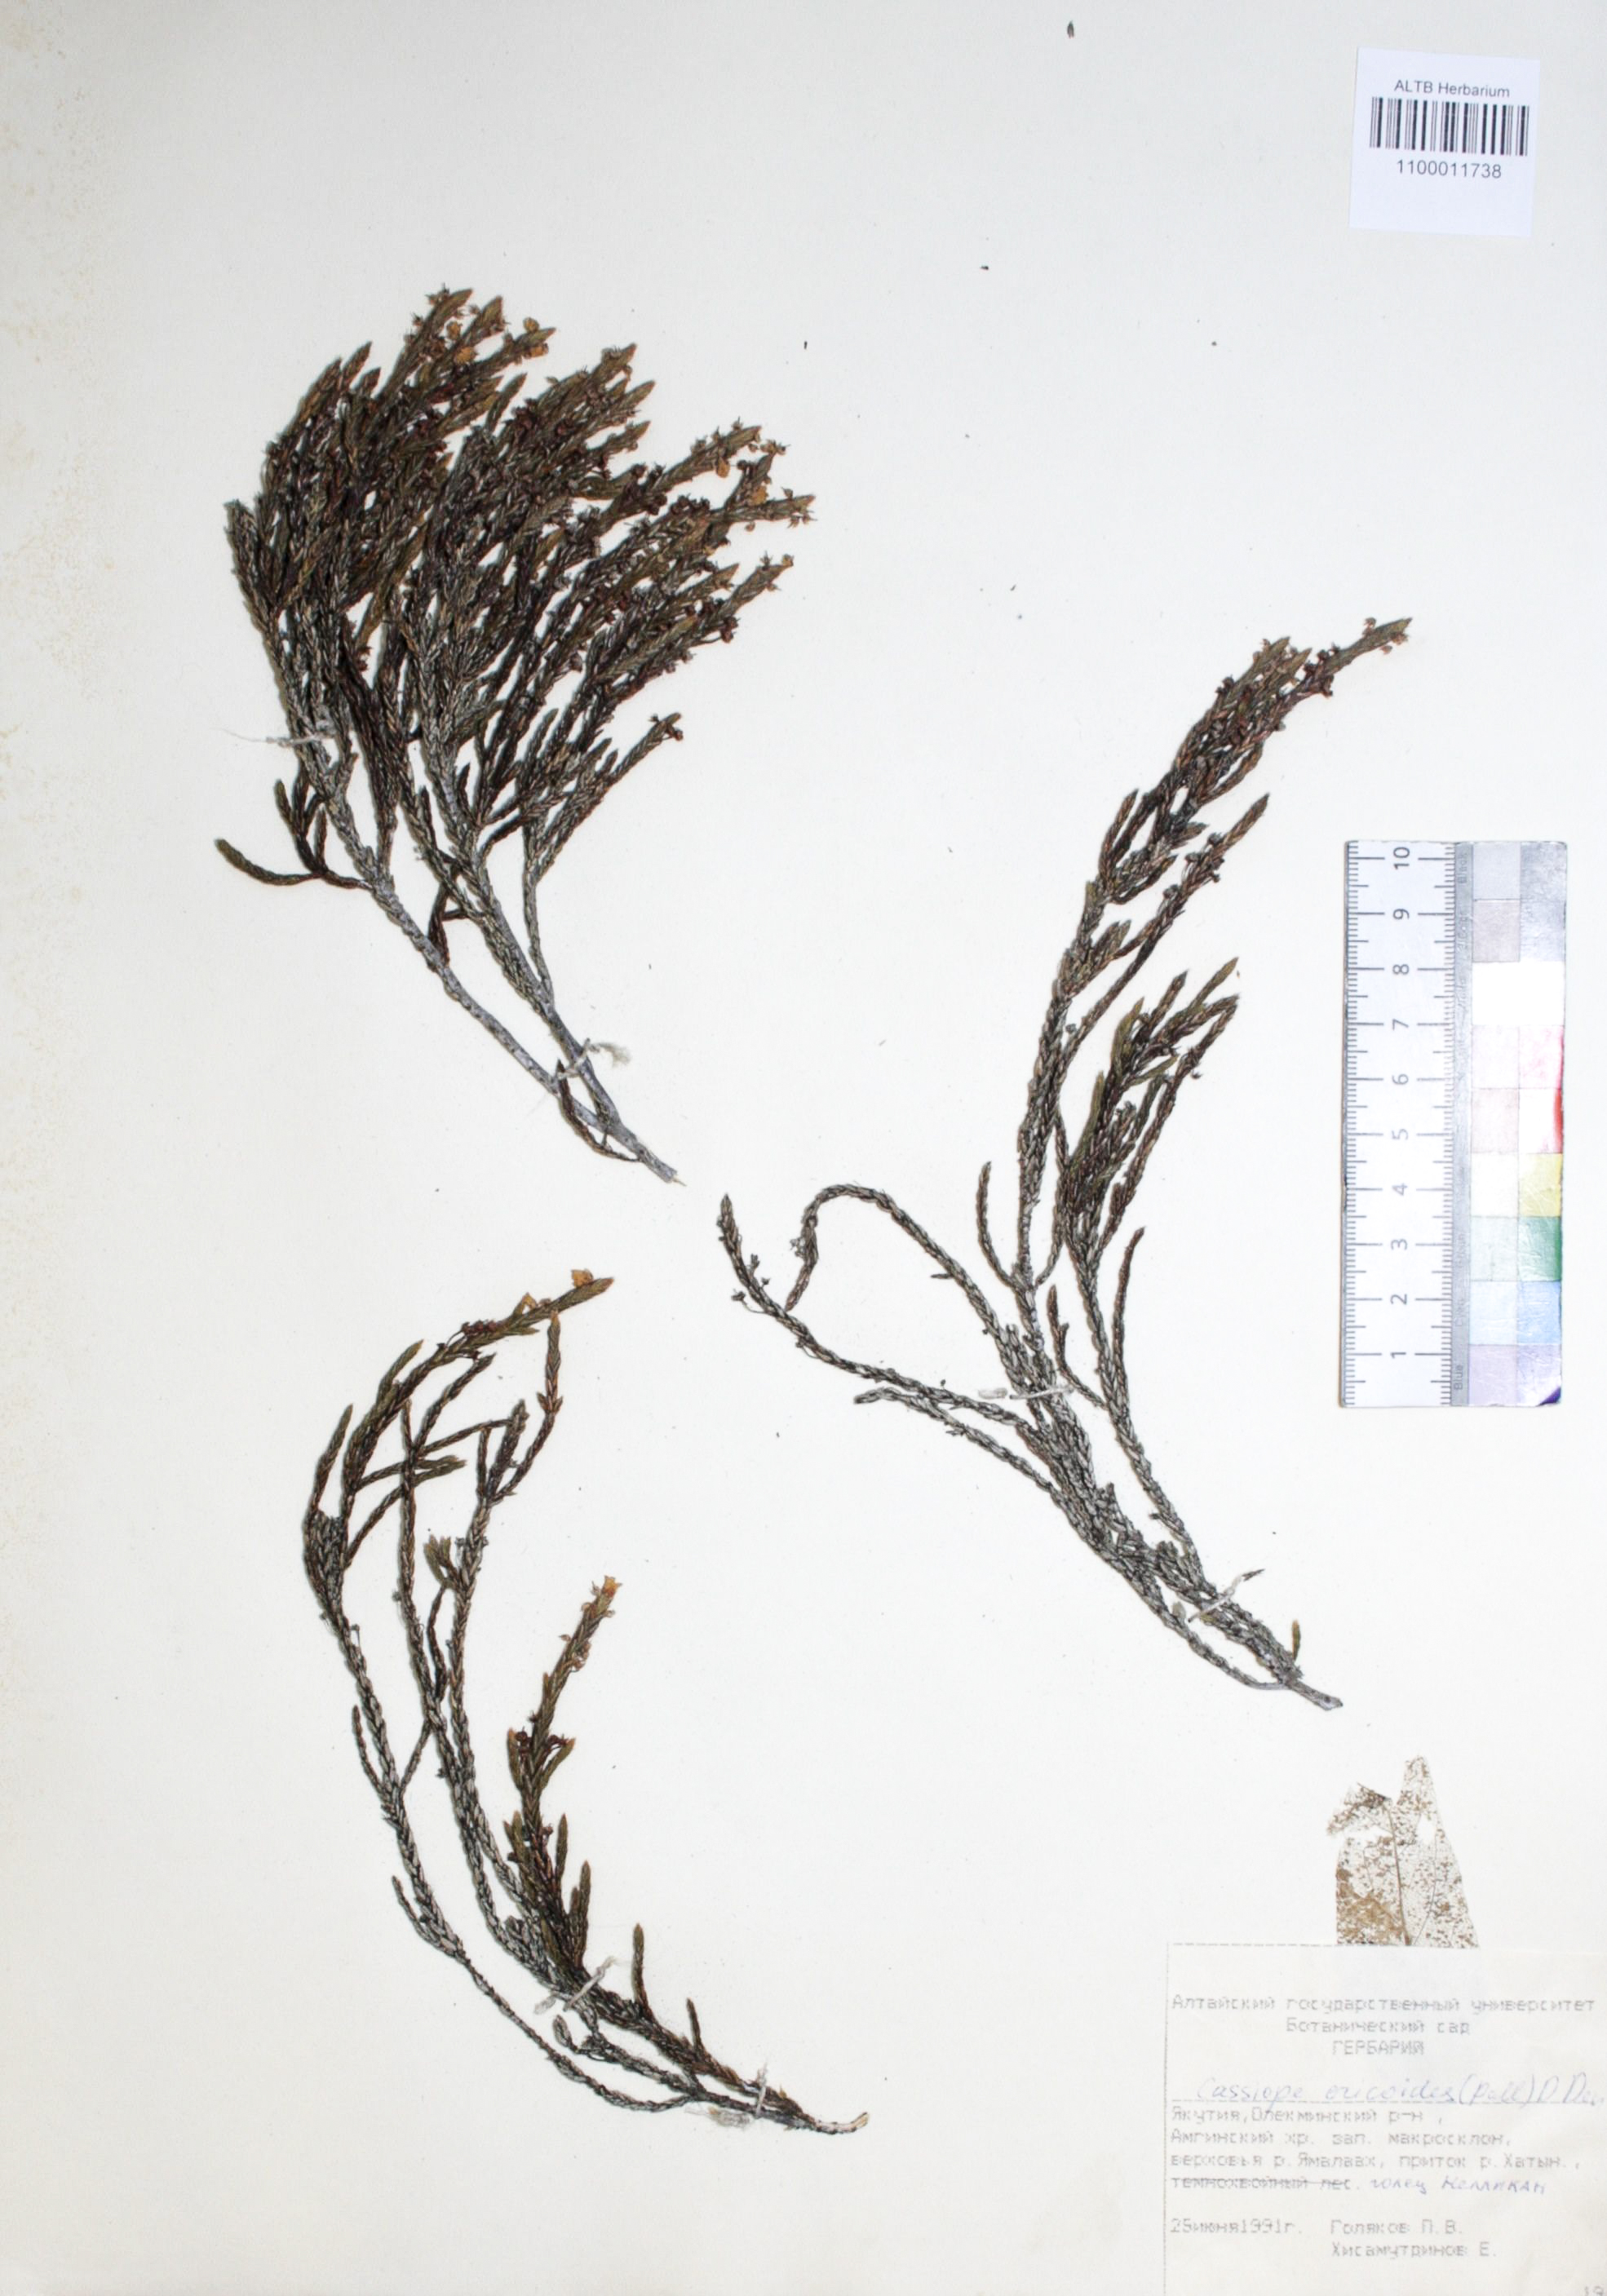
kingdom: Plantae
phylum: Tracheophyta
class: Magnoliopsida
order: Ericales
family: Ericaceae
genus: Cassiope
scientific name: Cassiope ericoides
